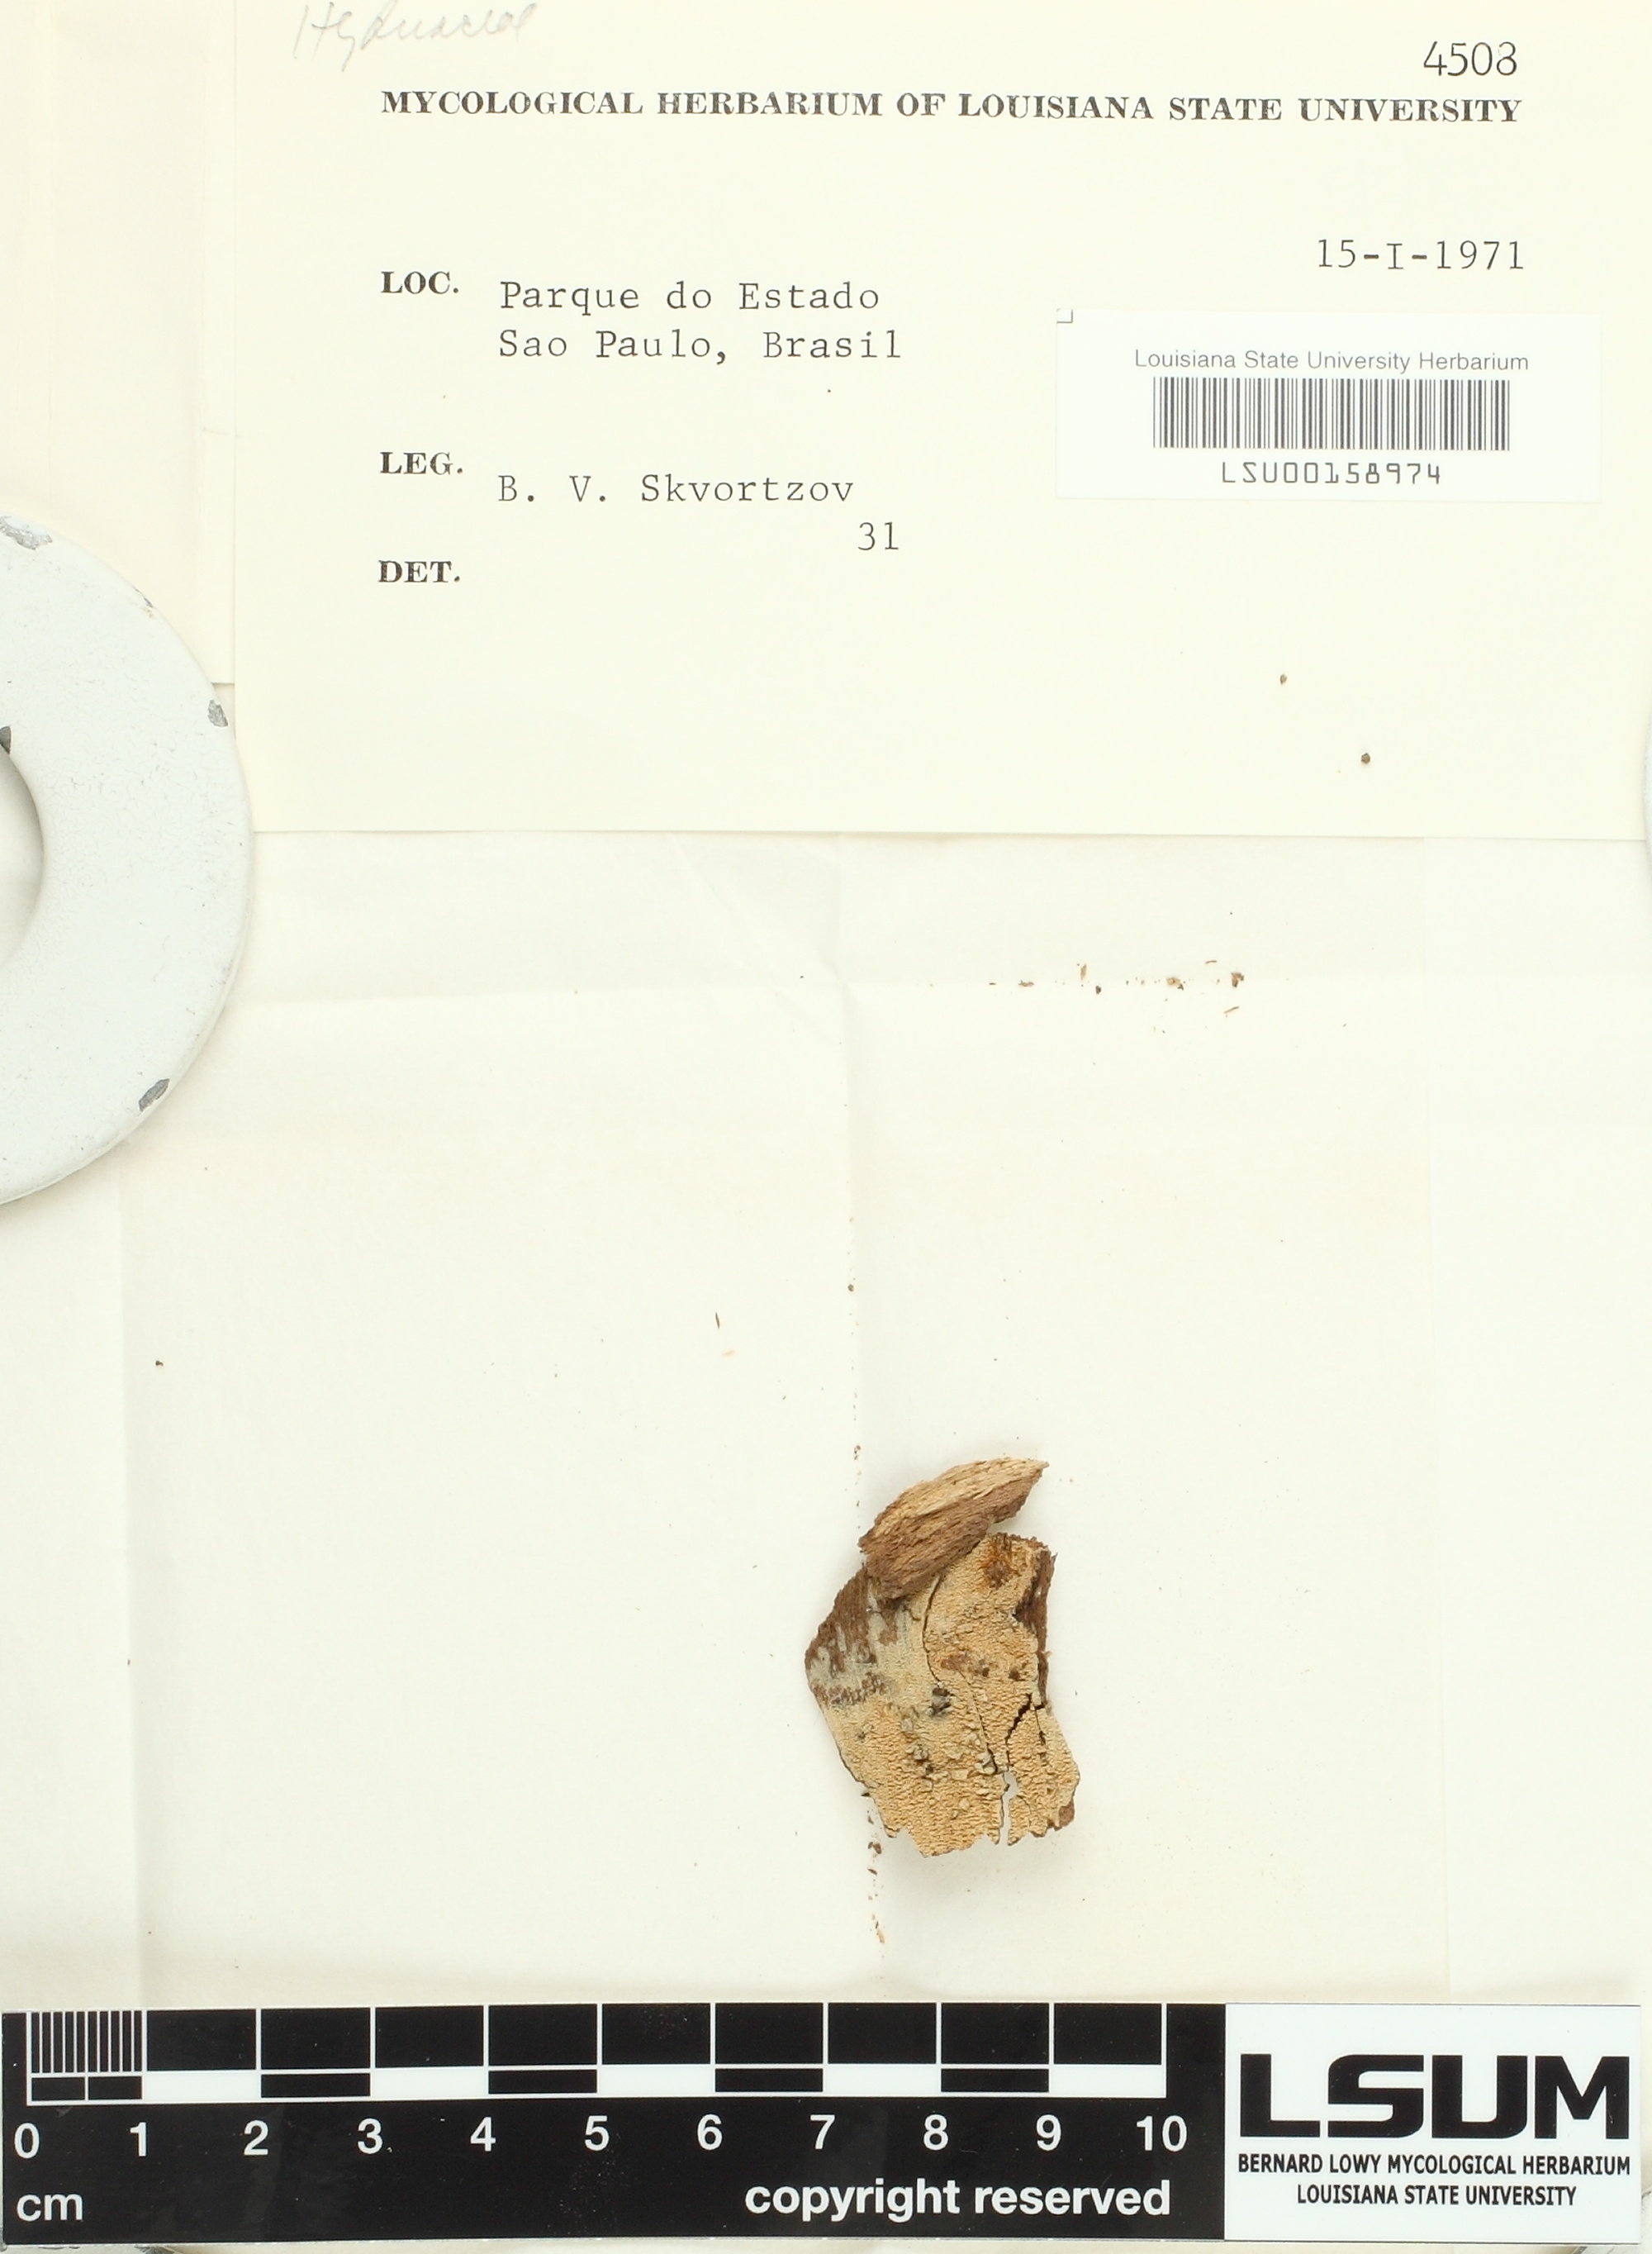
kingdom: Fungi
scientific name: Fungi
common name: Fungi
